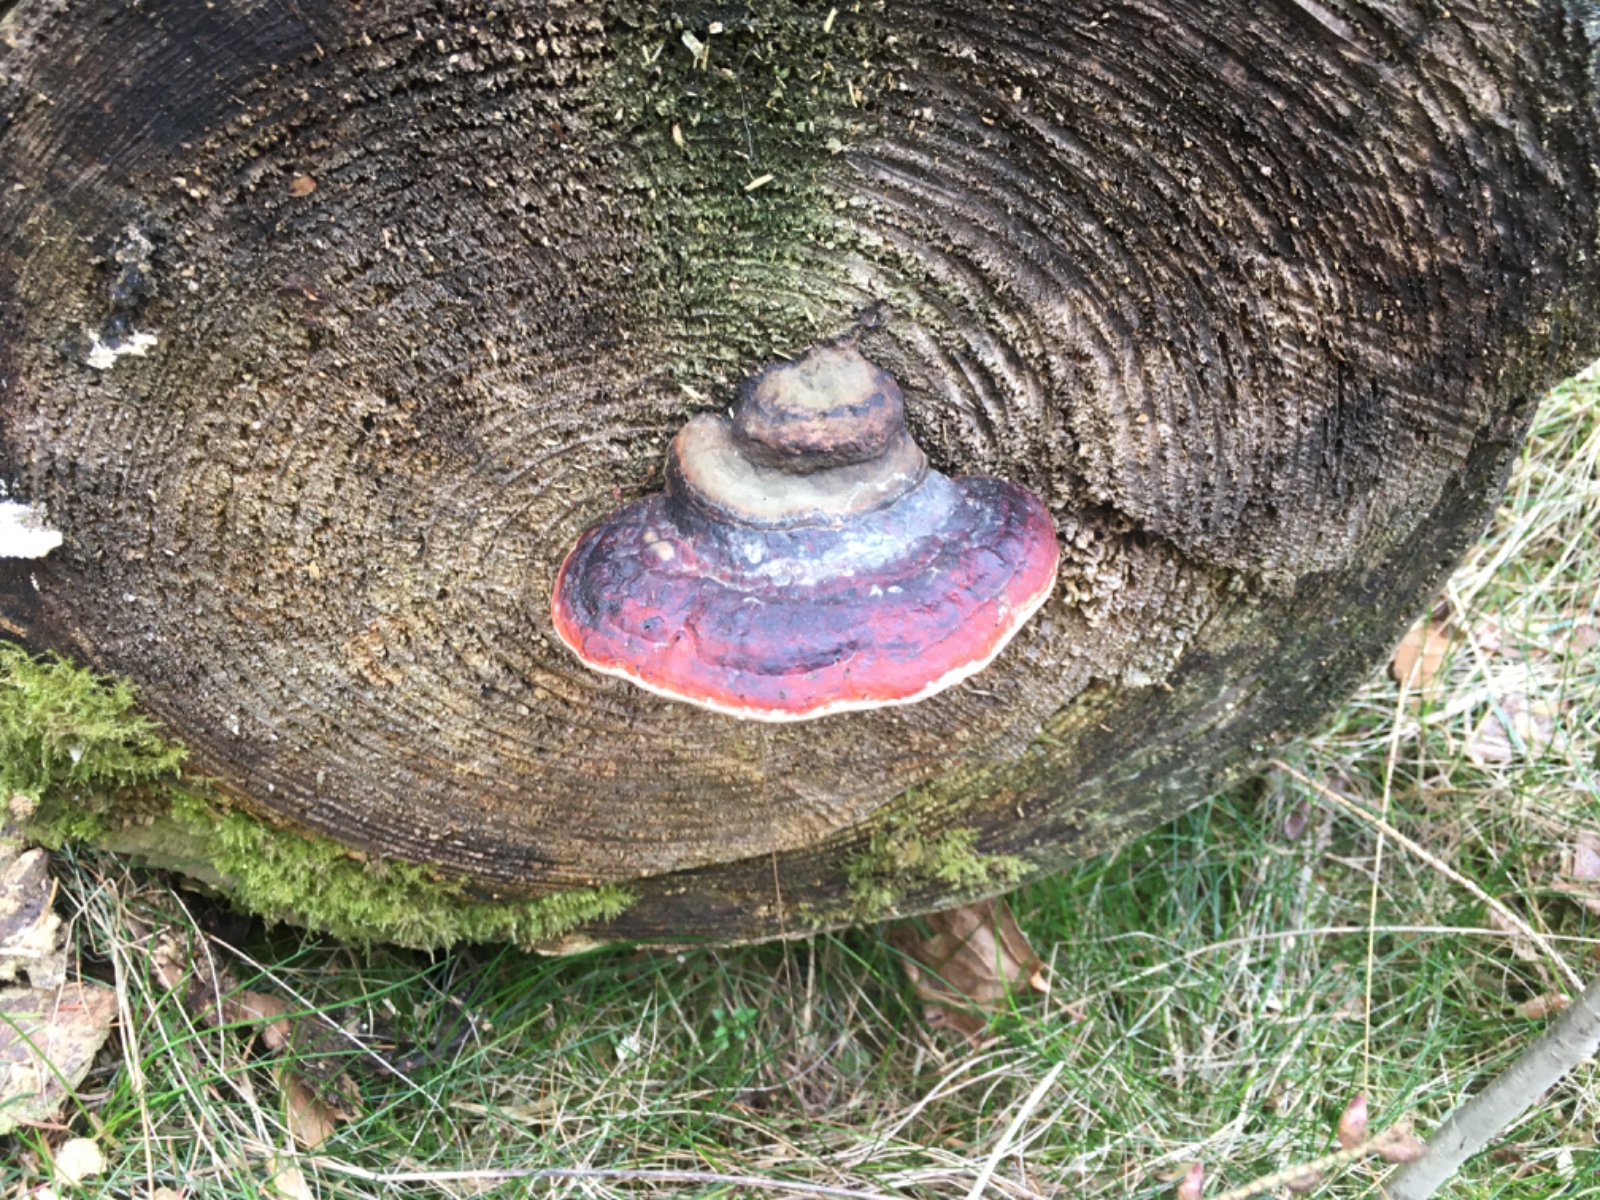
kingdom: Fungi
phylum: Basidiomycota
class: Agaricomycetes
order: Polyporales
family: Fomitopsidaceae
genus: Fomitopsis
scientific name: Fomitopsis pinicola
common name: randbæltet hovporesvamp
